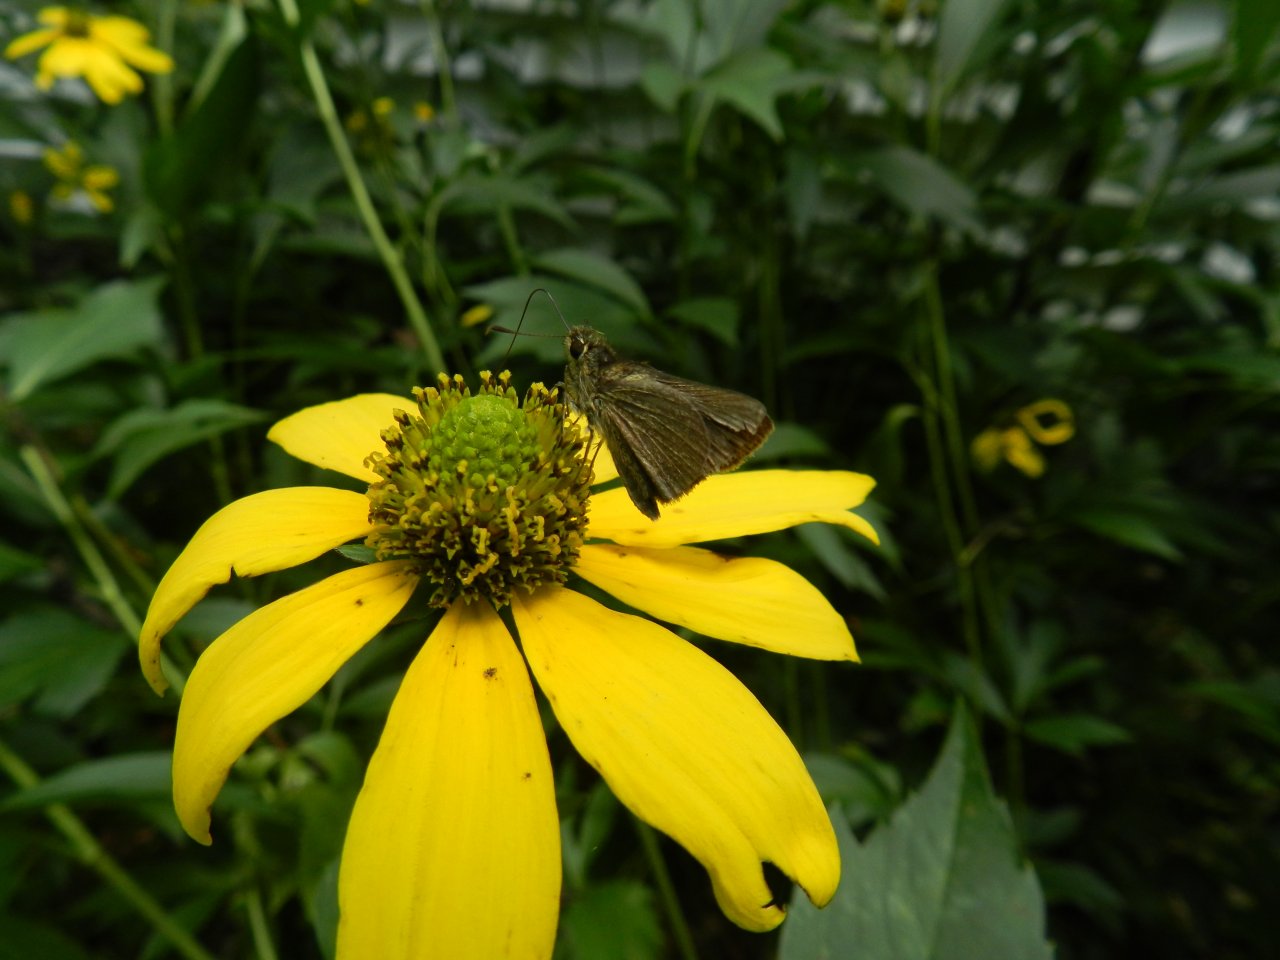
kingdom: Animalia
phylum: Arthropoda
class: Insecta
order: Lepidoptera
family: Hesperiidae
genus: Euphyes
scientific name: Euphyes vestris
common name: Dun Skipper
